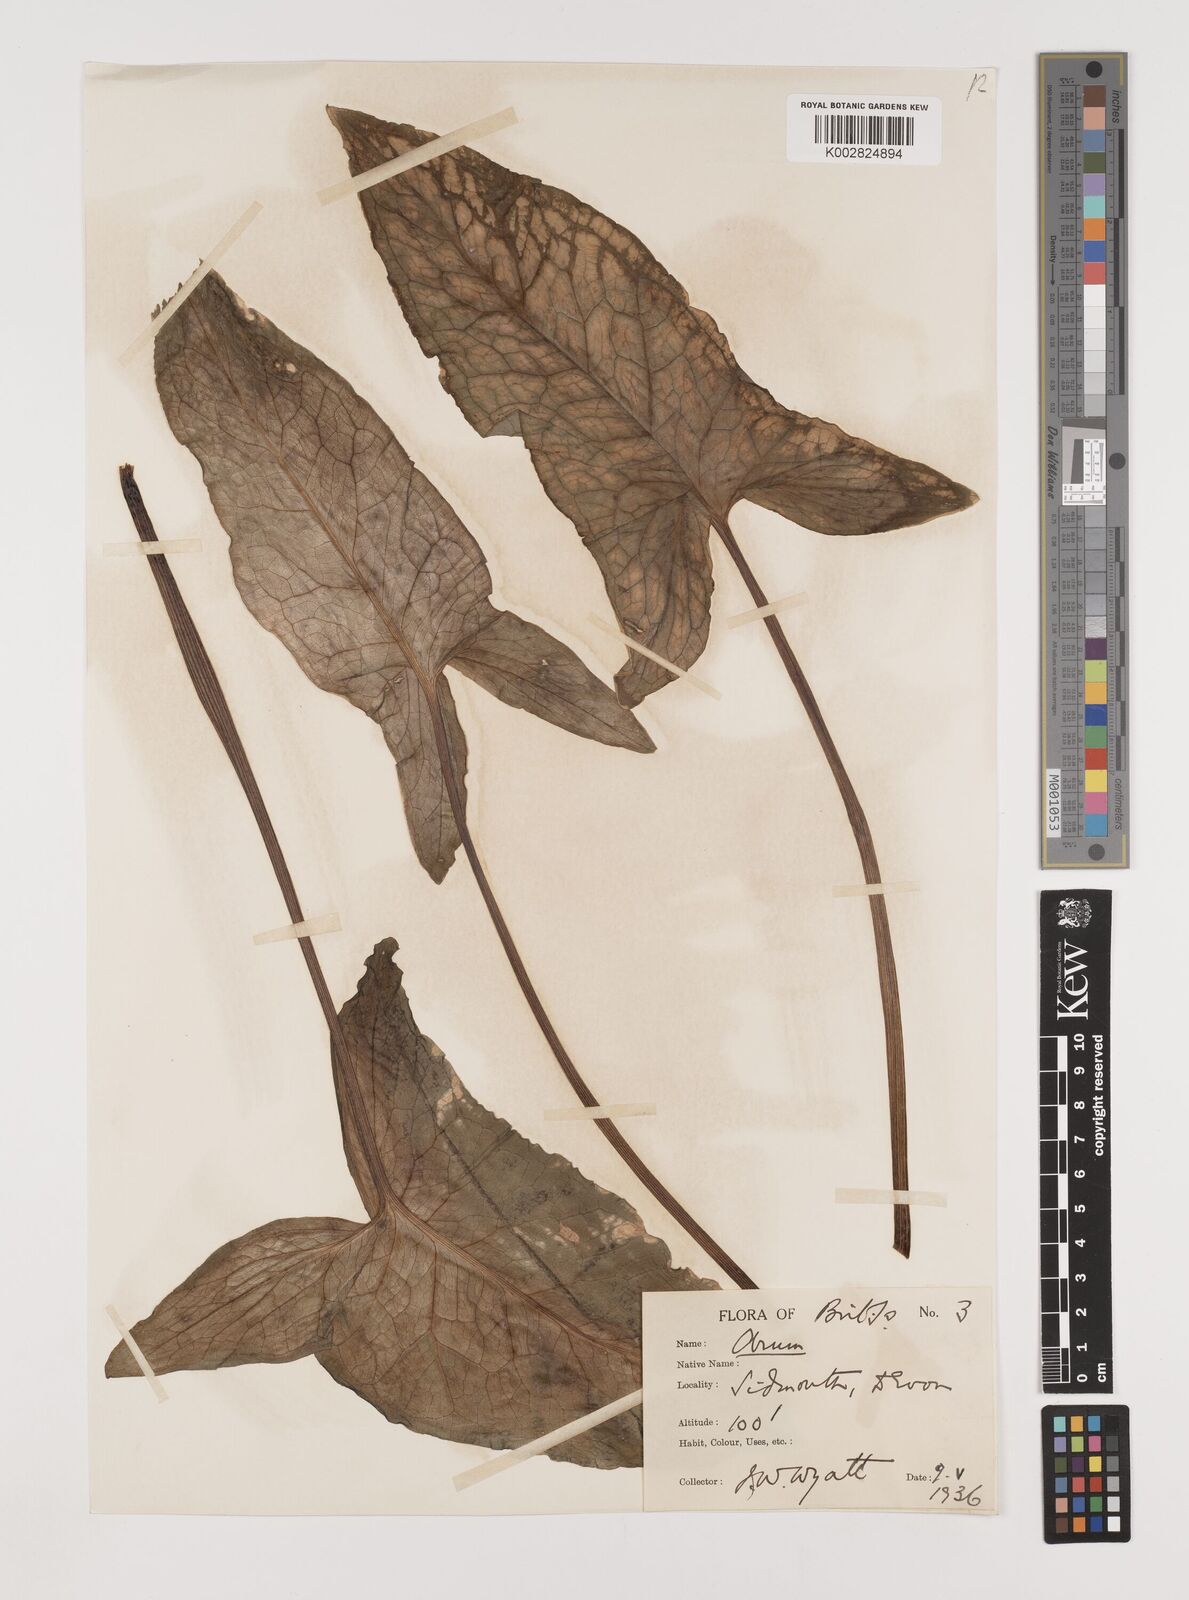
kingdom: Plantae
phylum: Tracheophyta
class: Liliopsida
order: Alismatales
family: Araceae
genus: Arum
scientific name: Arum italicum
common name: Italian lords-and-ladies
